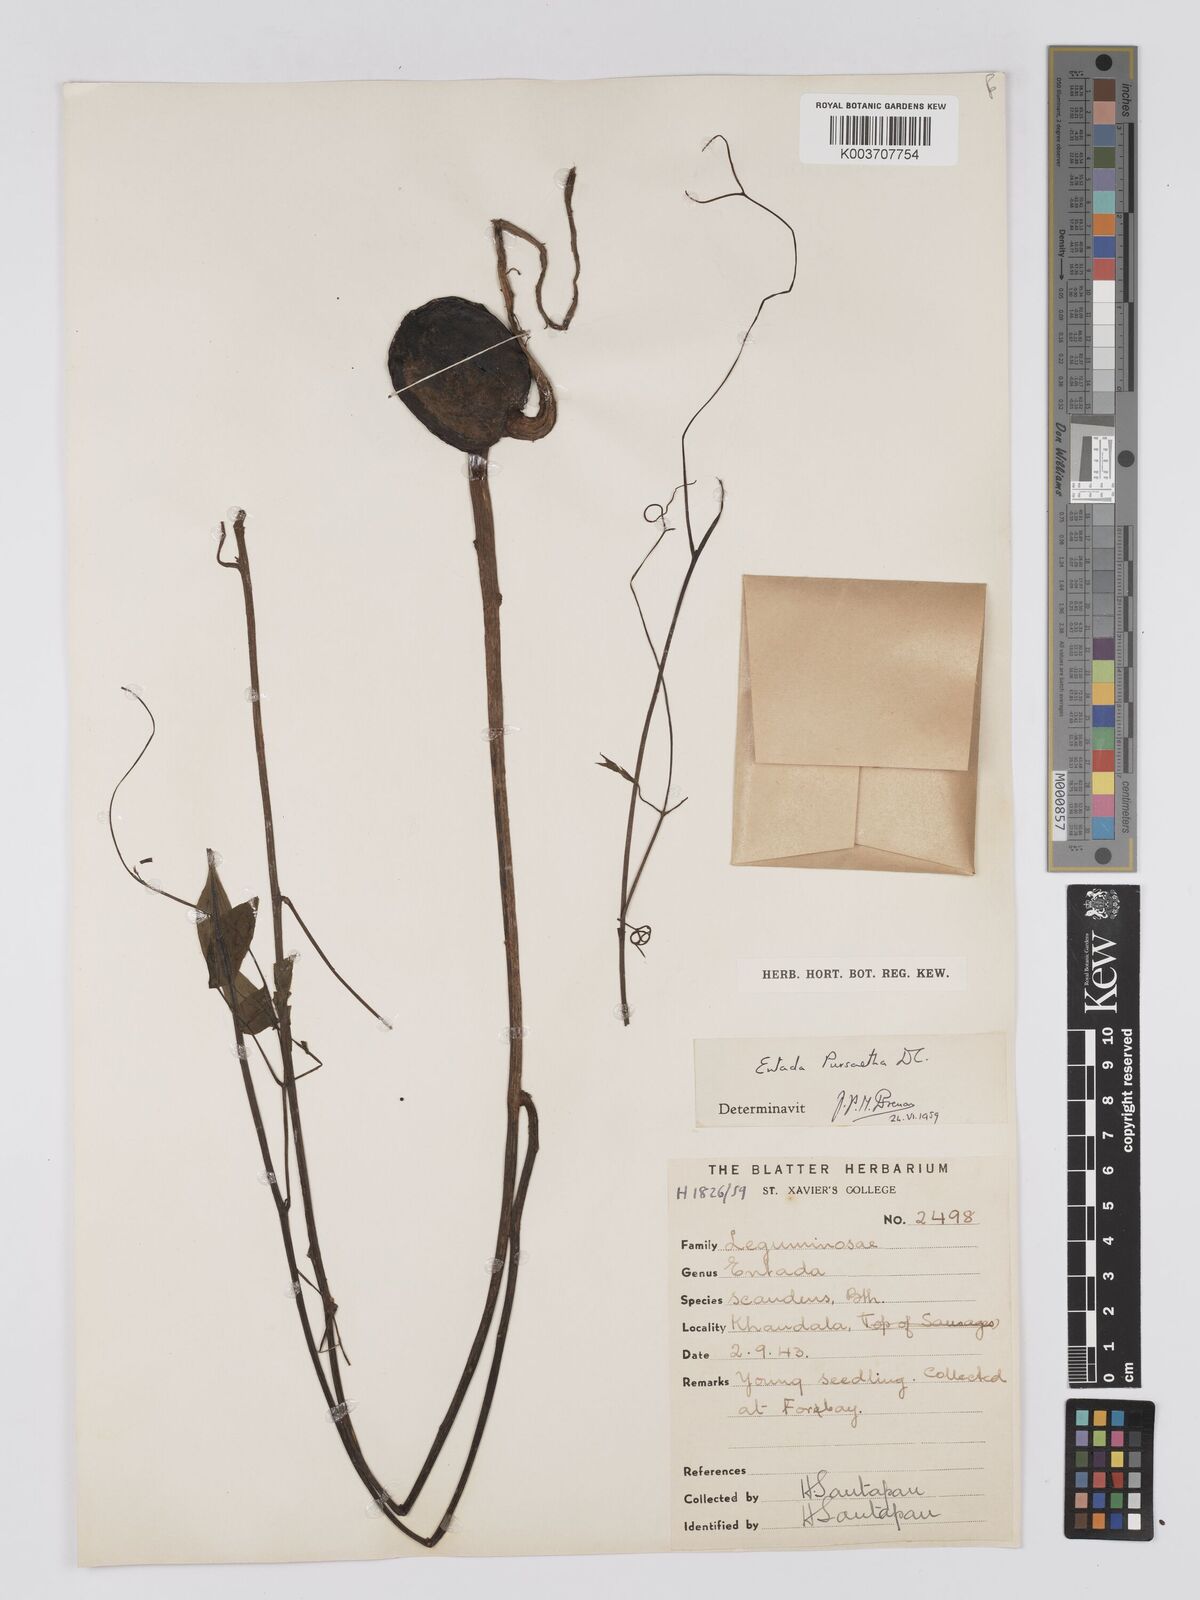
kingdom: Plantae
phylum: Tracheophyta
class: Magnoliopsida
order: Fabales
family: Fabaceae
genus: Entada
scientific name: Entada rheedei
